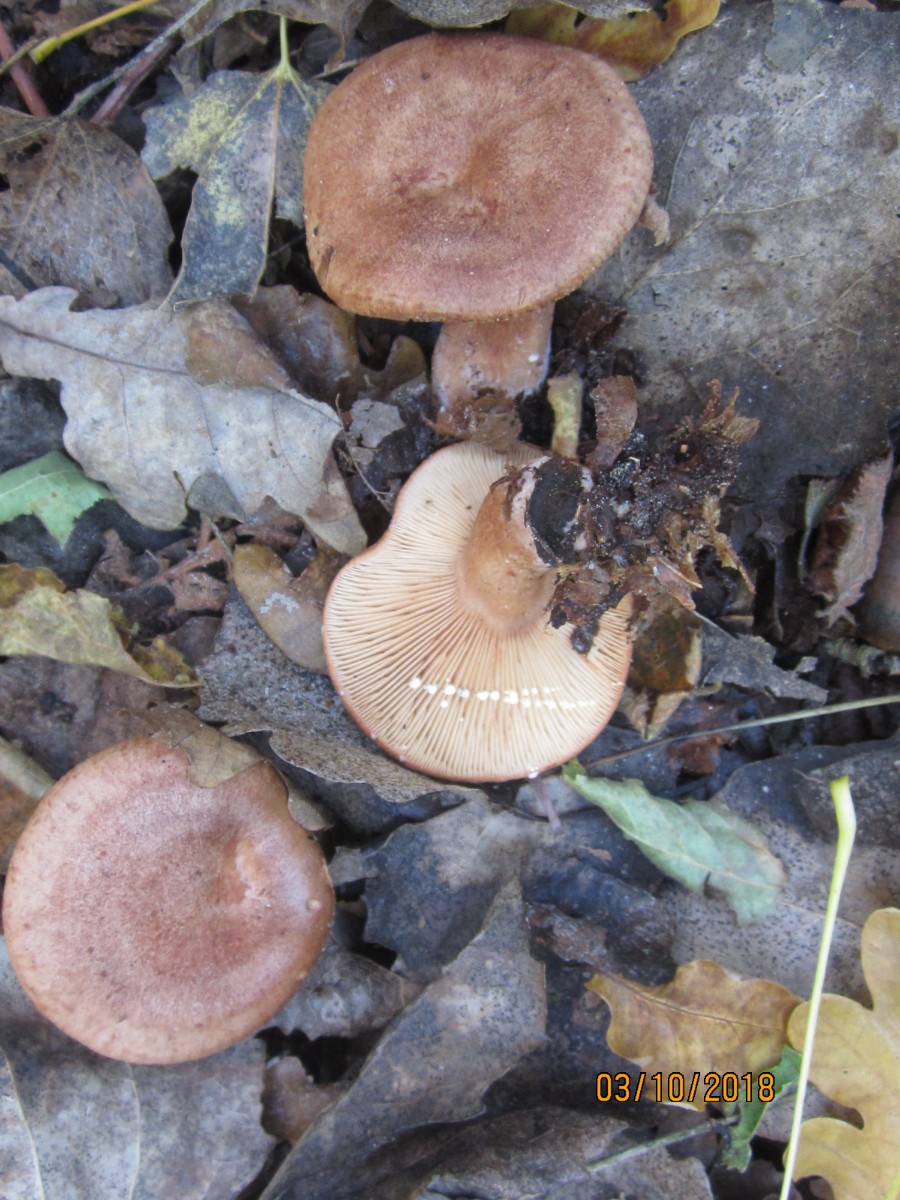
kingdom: Fungi
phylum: Basidiomycota
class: Agaricomycetes
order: Russulales
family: Russulaceae
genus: Lactarius
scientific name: Lactarius quietus
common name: ege-mælkehat
